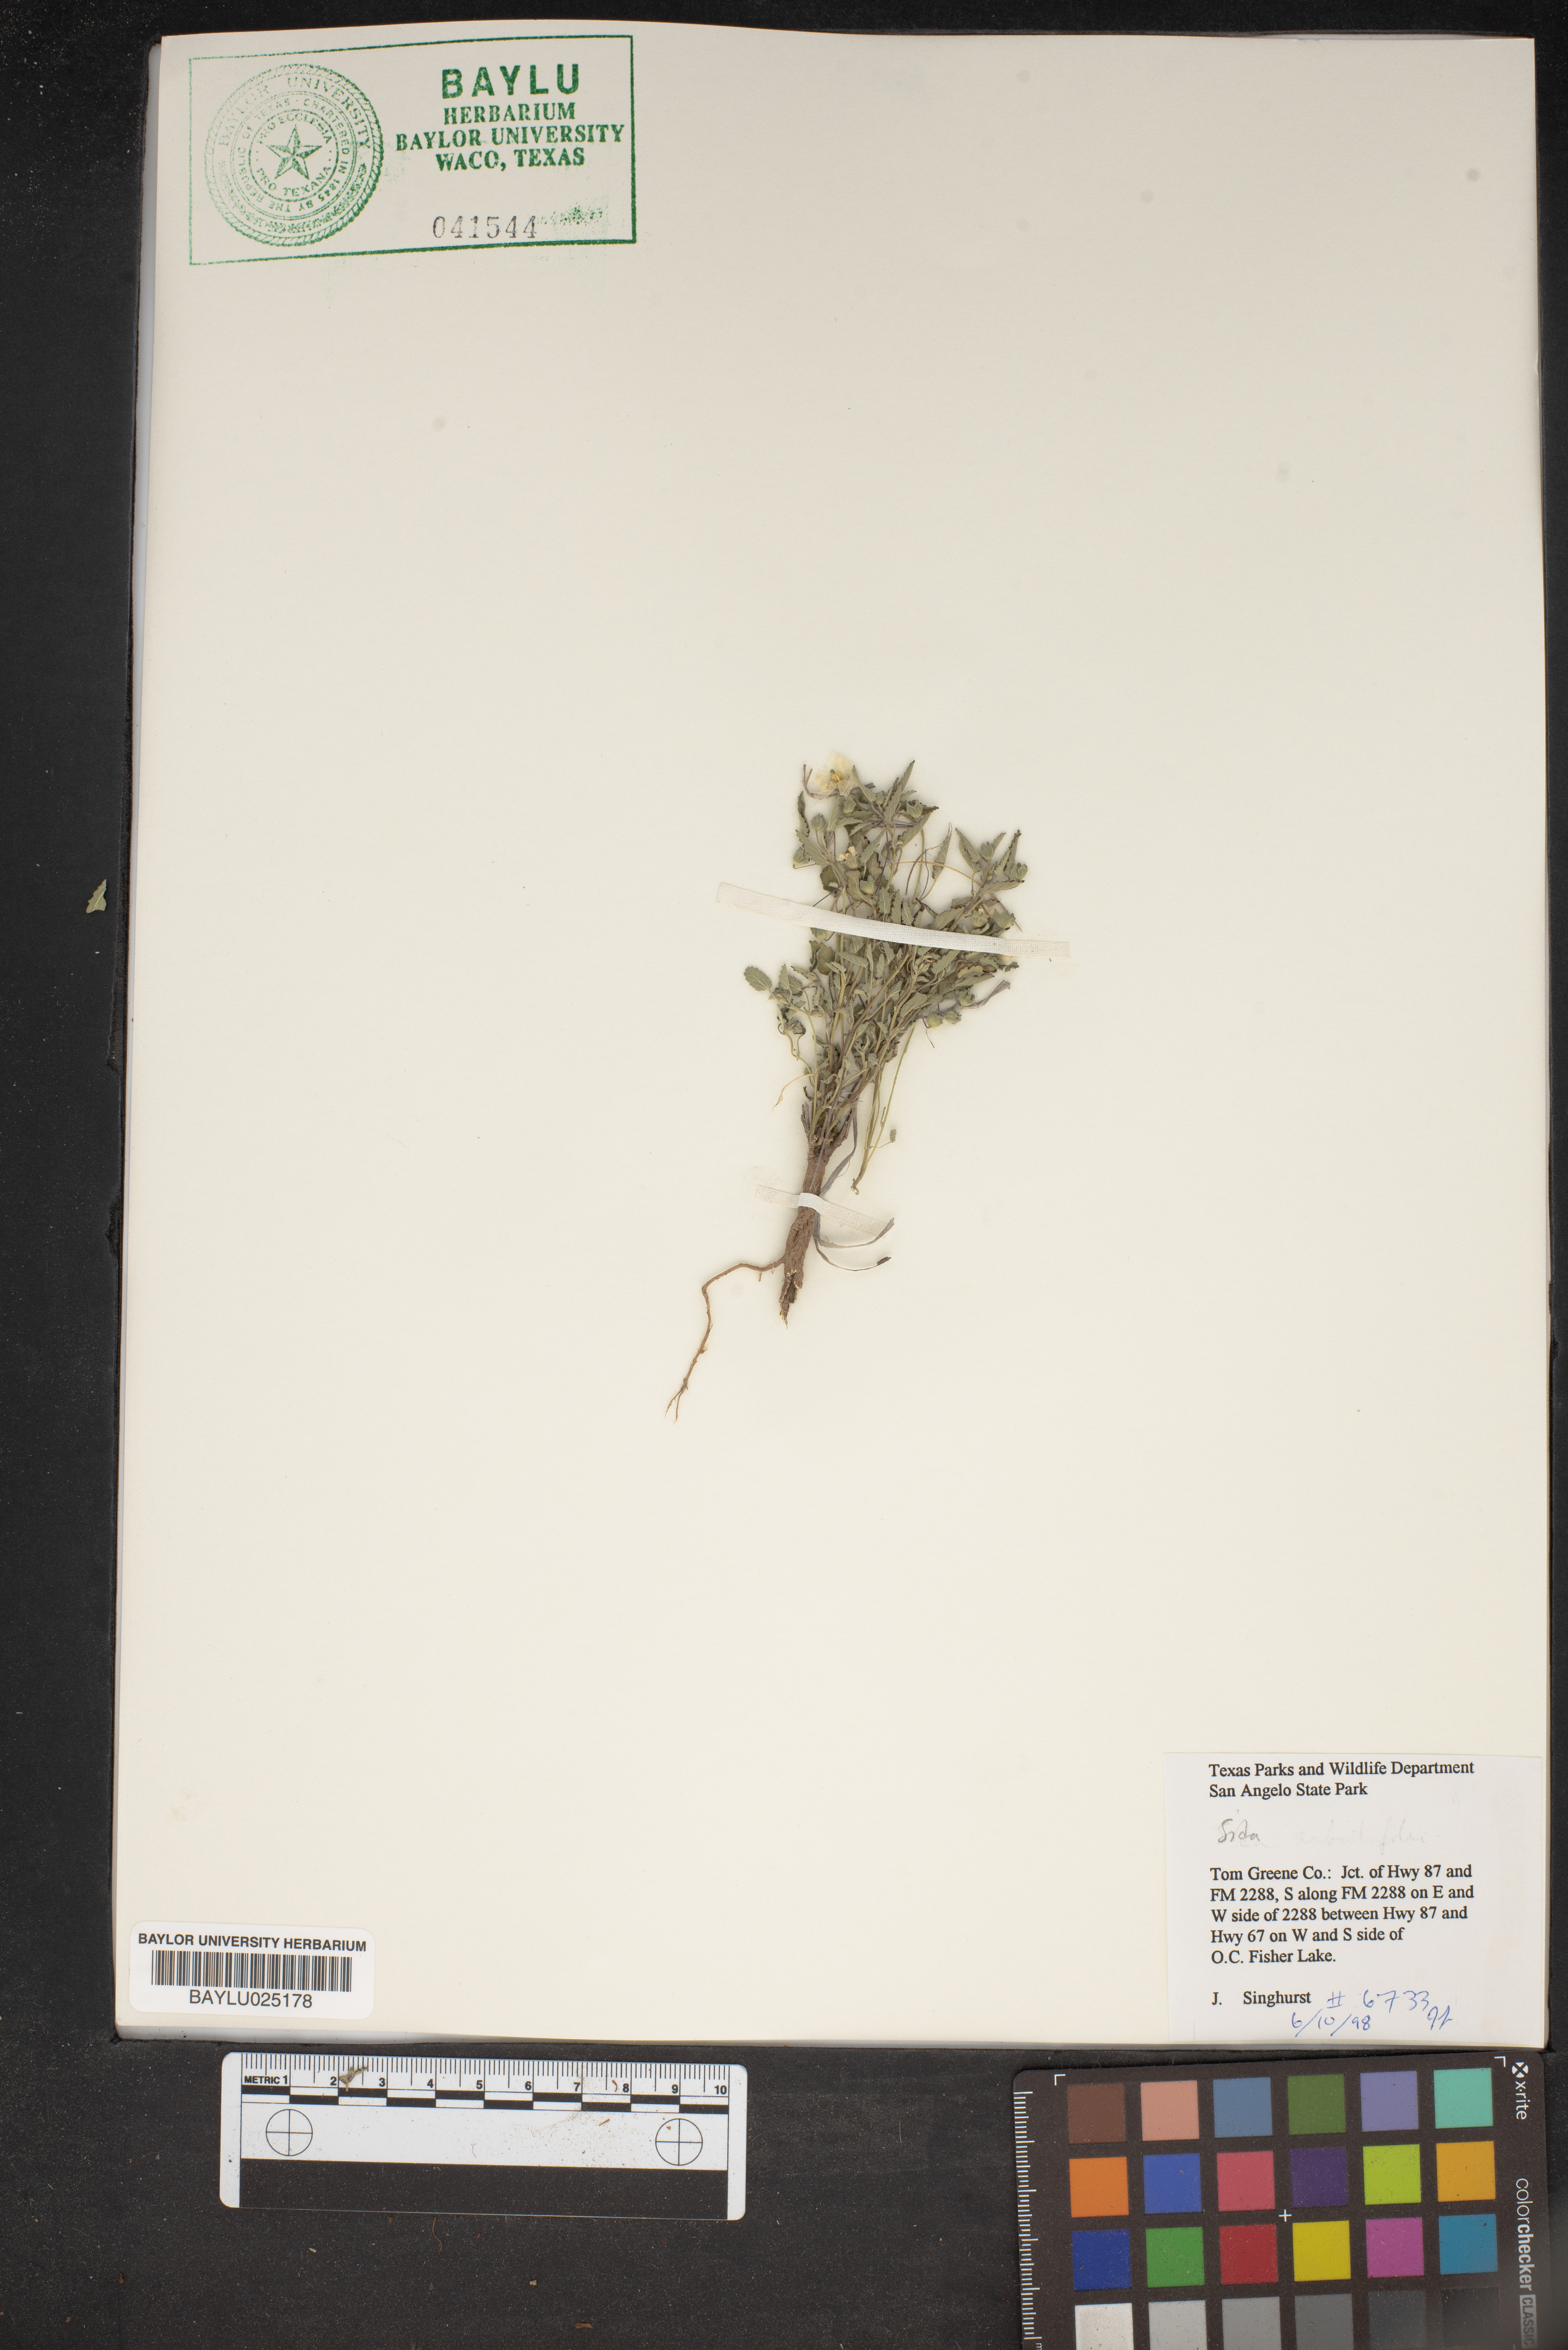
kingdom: Plantae
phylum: Tracheophyta
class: Magnoliopsida
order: Malvales
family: Malvaceae
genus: Sida
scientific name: Sida
